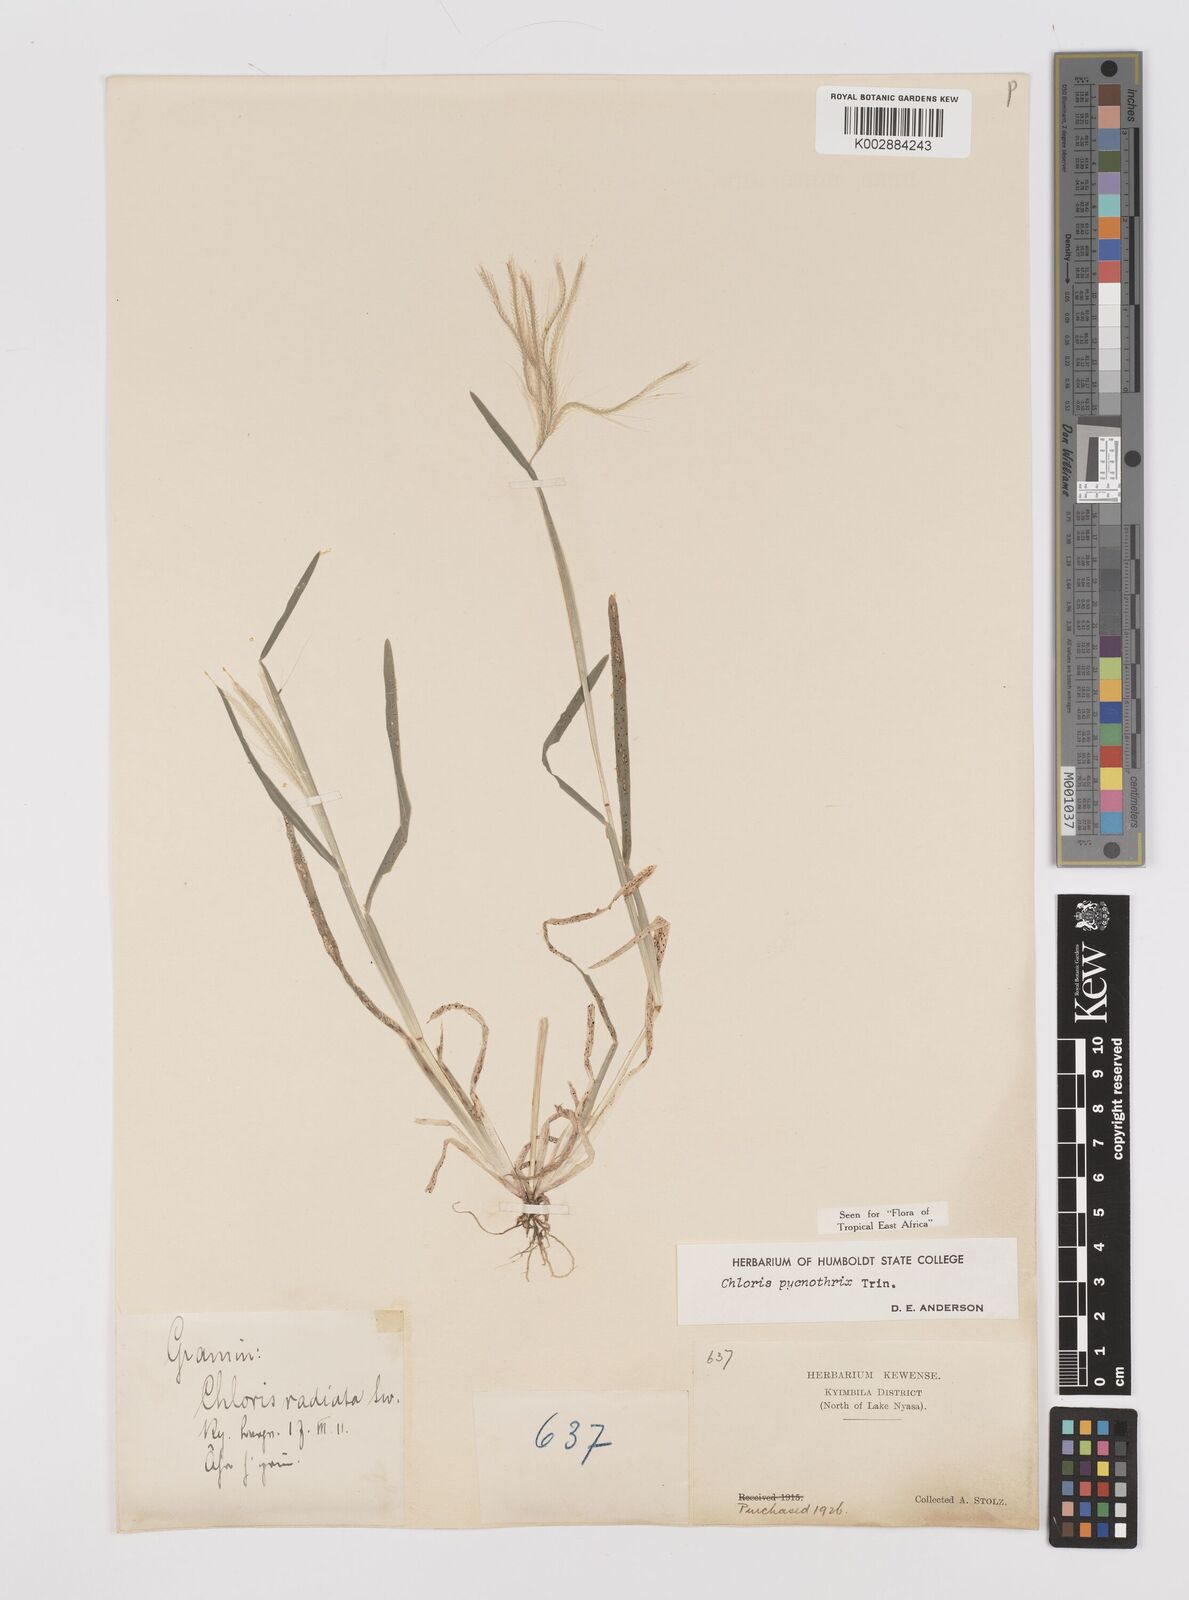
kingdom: Plantae
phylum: Tracheophyta
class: Liliopsida
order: Poales
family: Poaceae
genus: Chloris
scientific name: Chloris pycnothrix
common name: Spiderweb chloris
